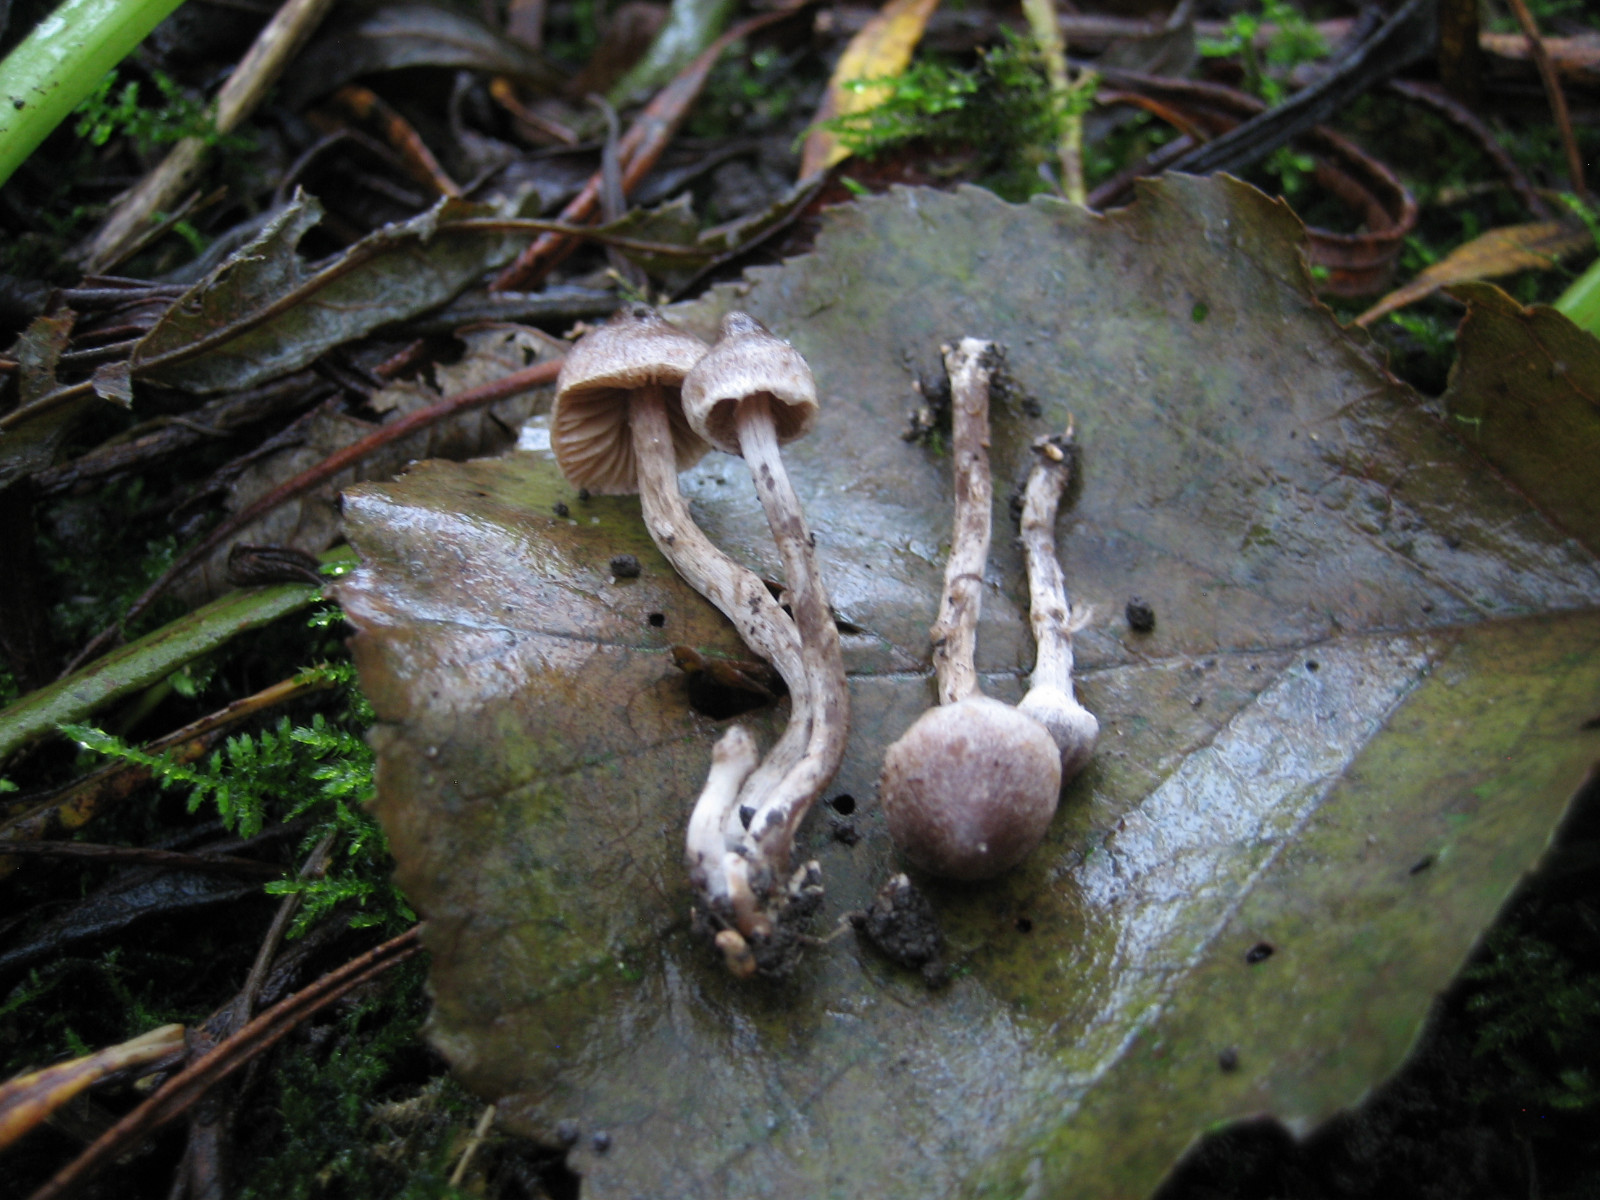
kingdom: Fungi
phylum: Basidiomycota
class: Agaricomycetes
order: Agaricales
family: Cortinariaceae
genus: Cortinarius
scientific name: Cortinarius griseocarneus
